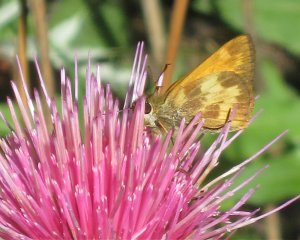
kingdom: Animalia
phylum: Arthropoda
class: Insecta
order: Lepidoptera
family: Hesperiidae
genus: Lon
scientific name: Lon taxiles
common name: Taxiles Skipper
